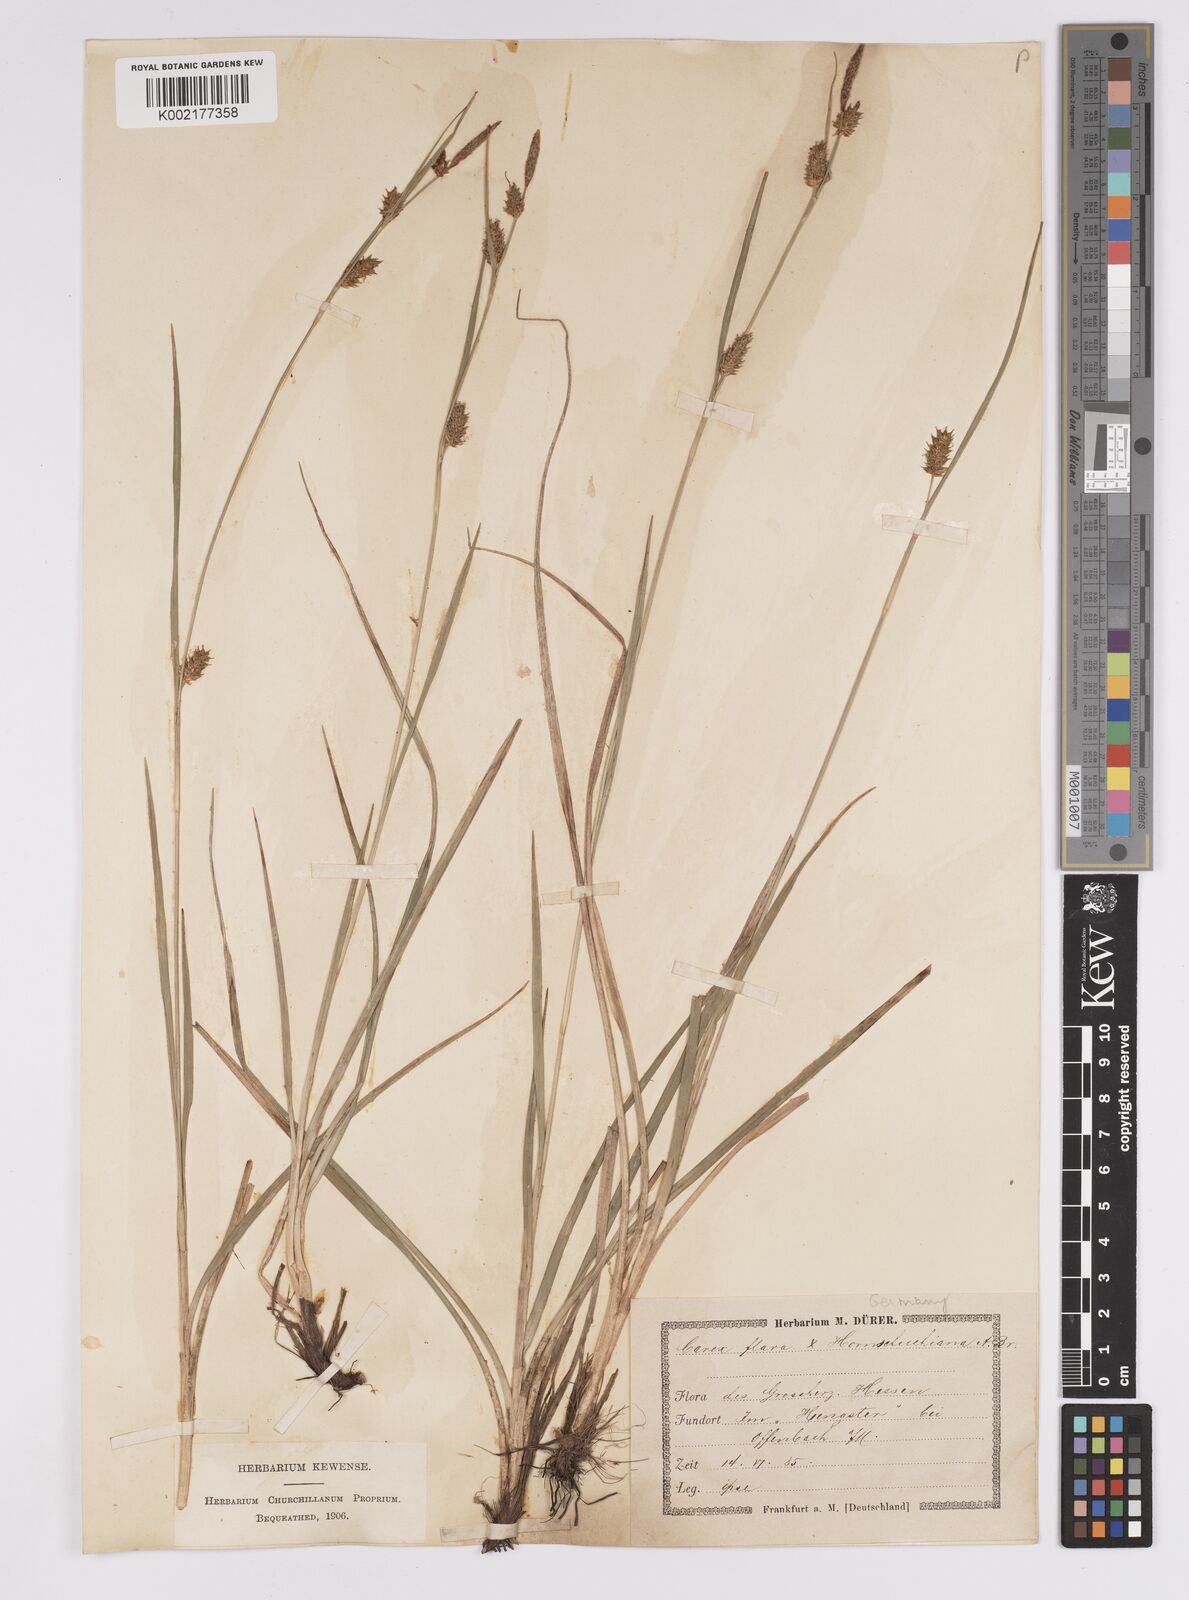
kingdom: Plantae
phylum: Tracheophyta
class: Liliopsida
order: Poales
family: Cyperaceae
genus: Carex
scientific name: Carex hostiana
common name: Tawny sedge
